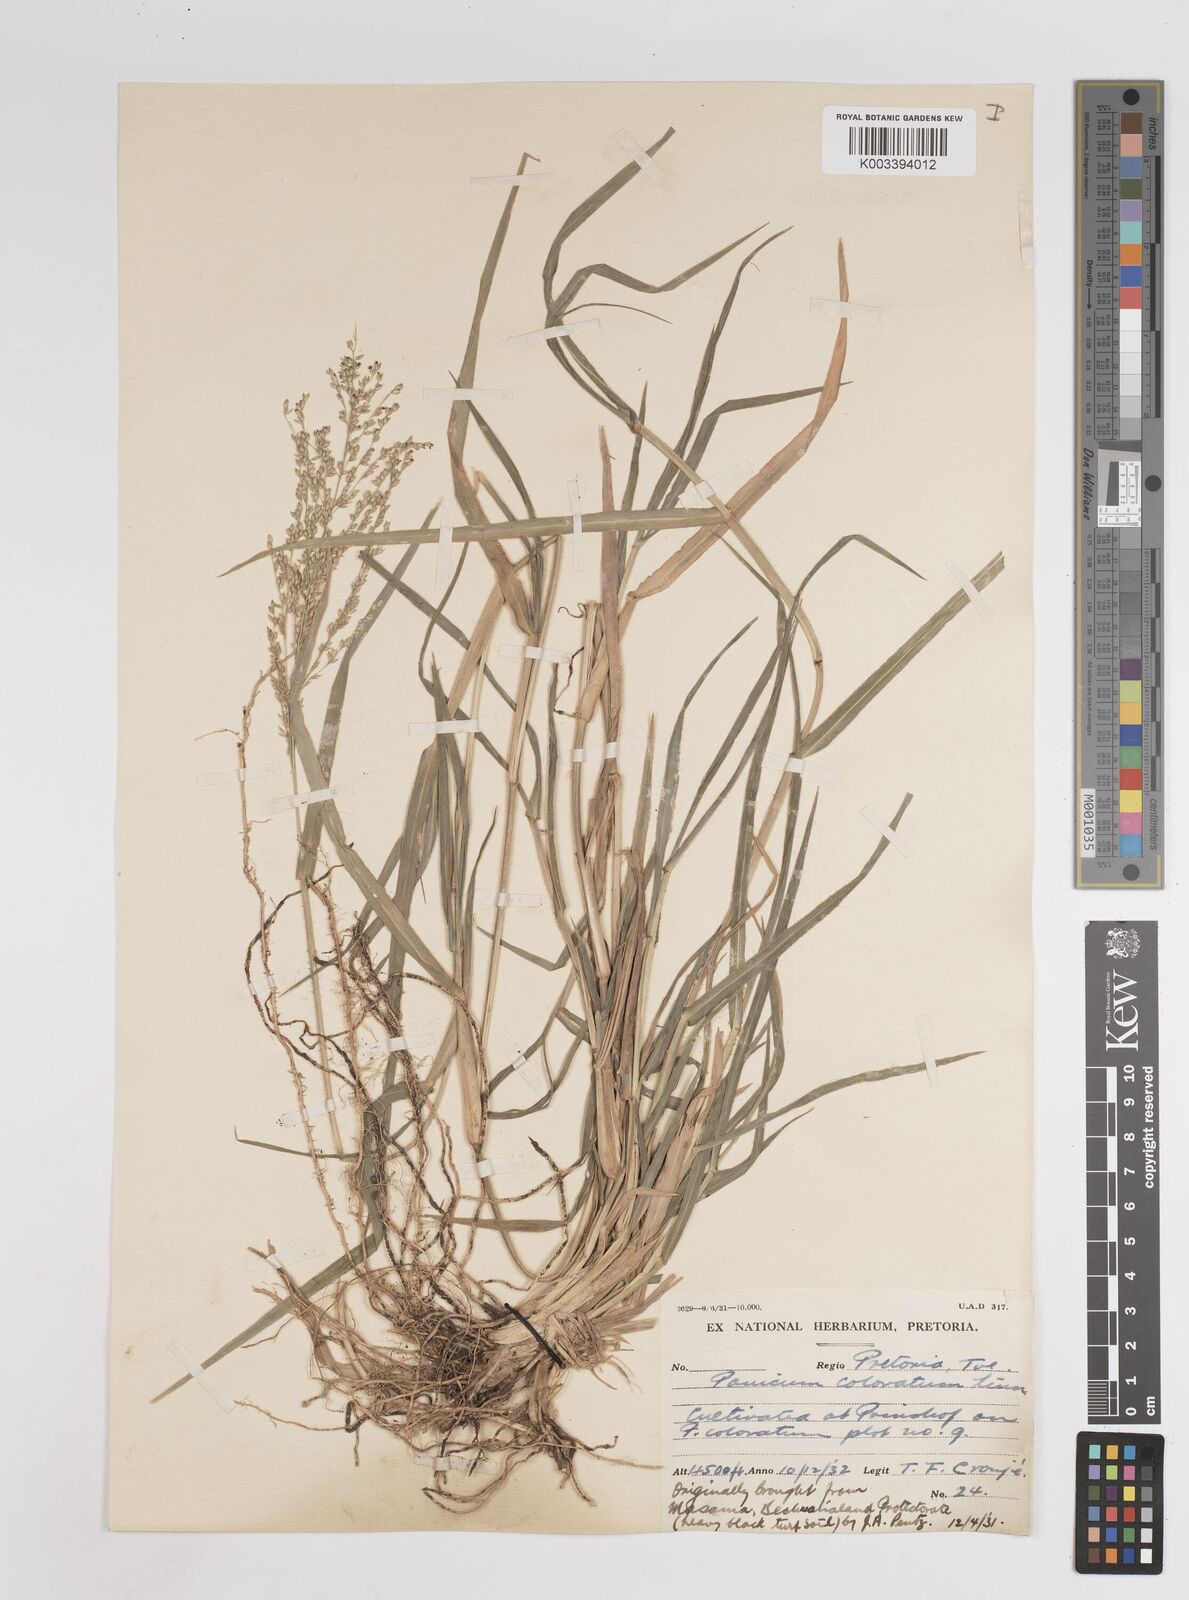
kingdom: Plantae
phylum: Tracheophyta
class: Liliopsida
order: Poales
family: Poaceae
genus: Panicum
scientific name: Panicum coloratum
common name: Kleingrass
